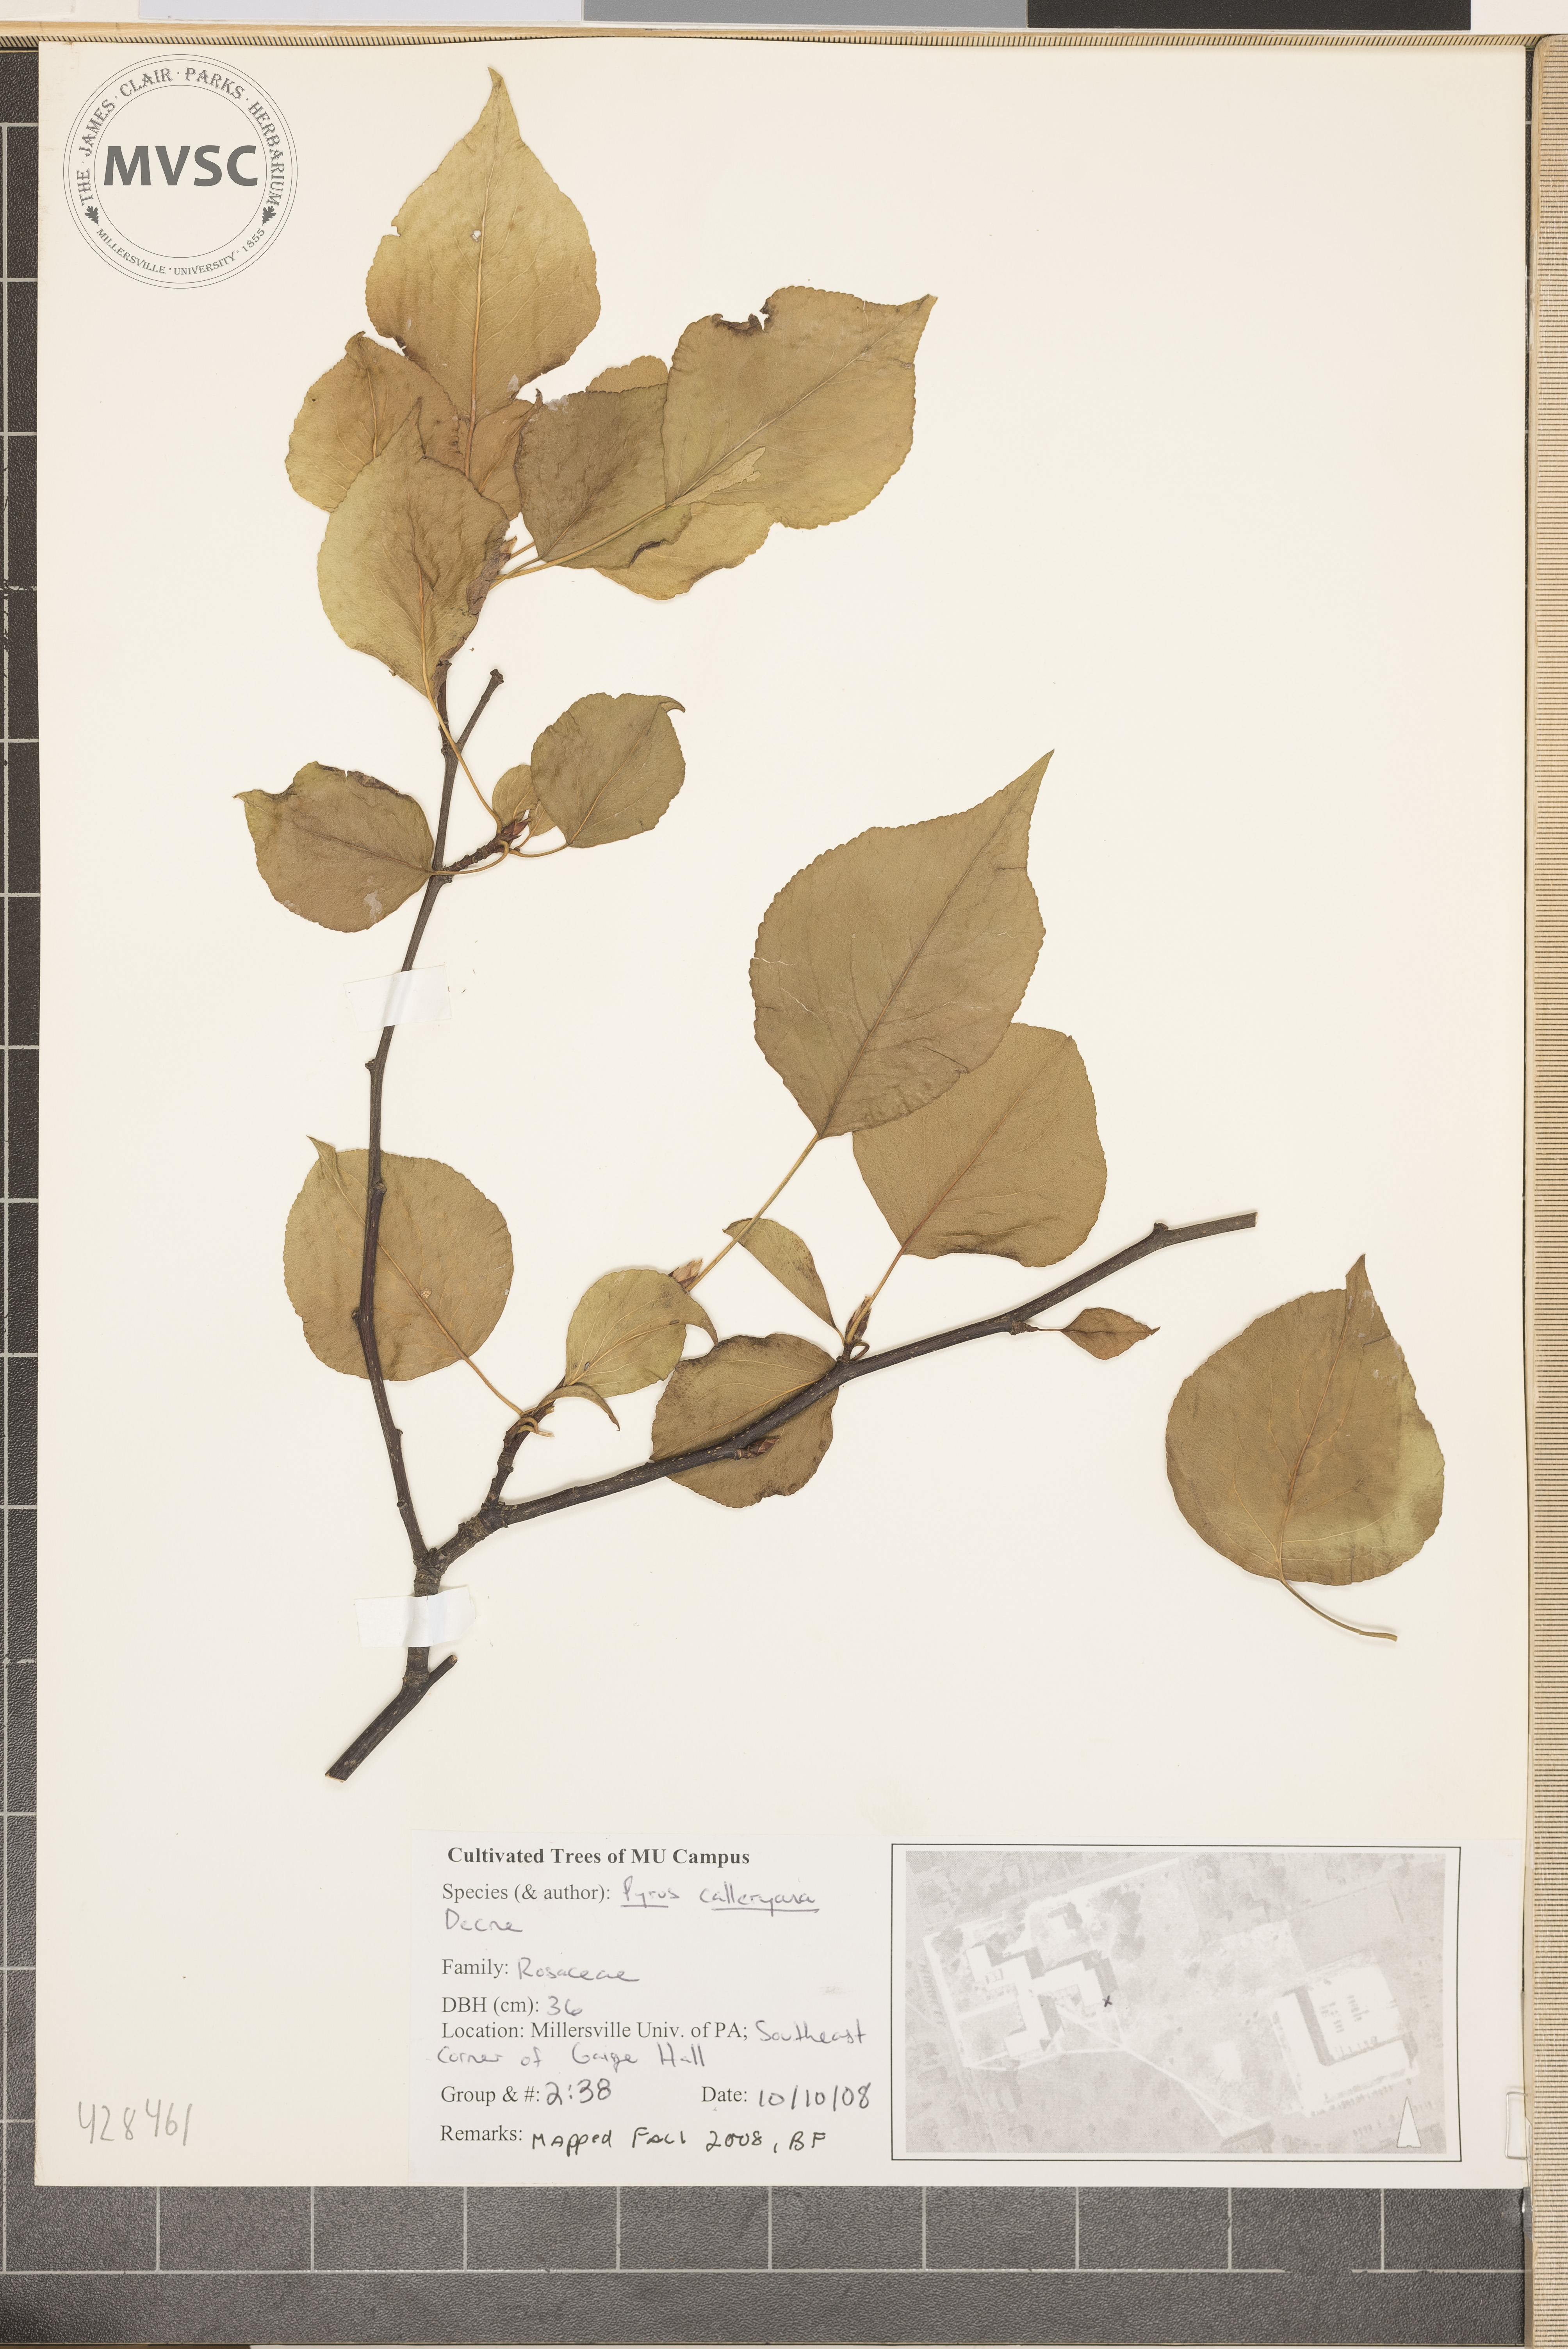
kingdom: Plantae
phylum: Tracheophyta
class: Magnoliopsida
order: Rosales
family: Rosaceae
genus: Pyrus
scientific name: Pyrus calleryana
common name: Callery Pear
